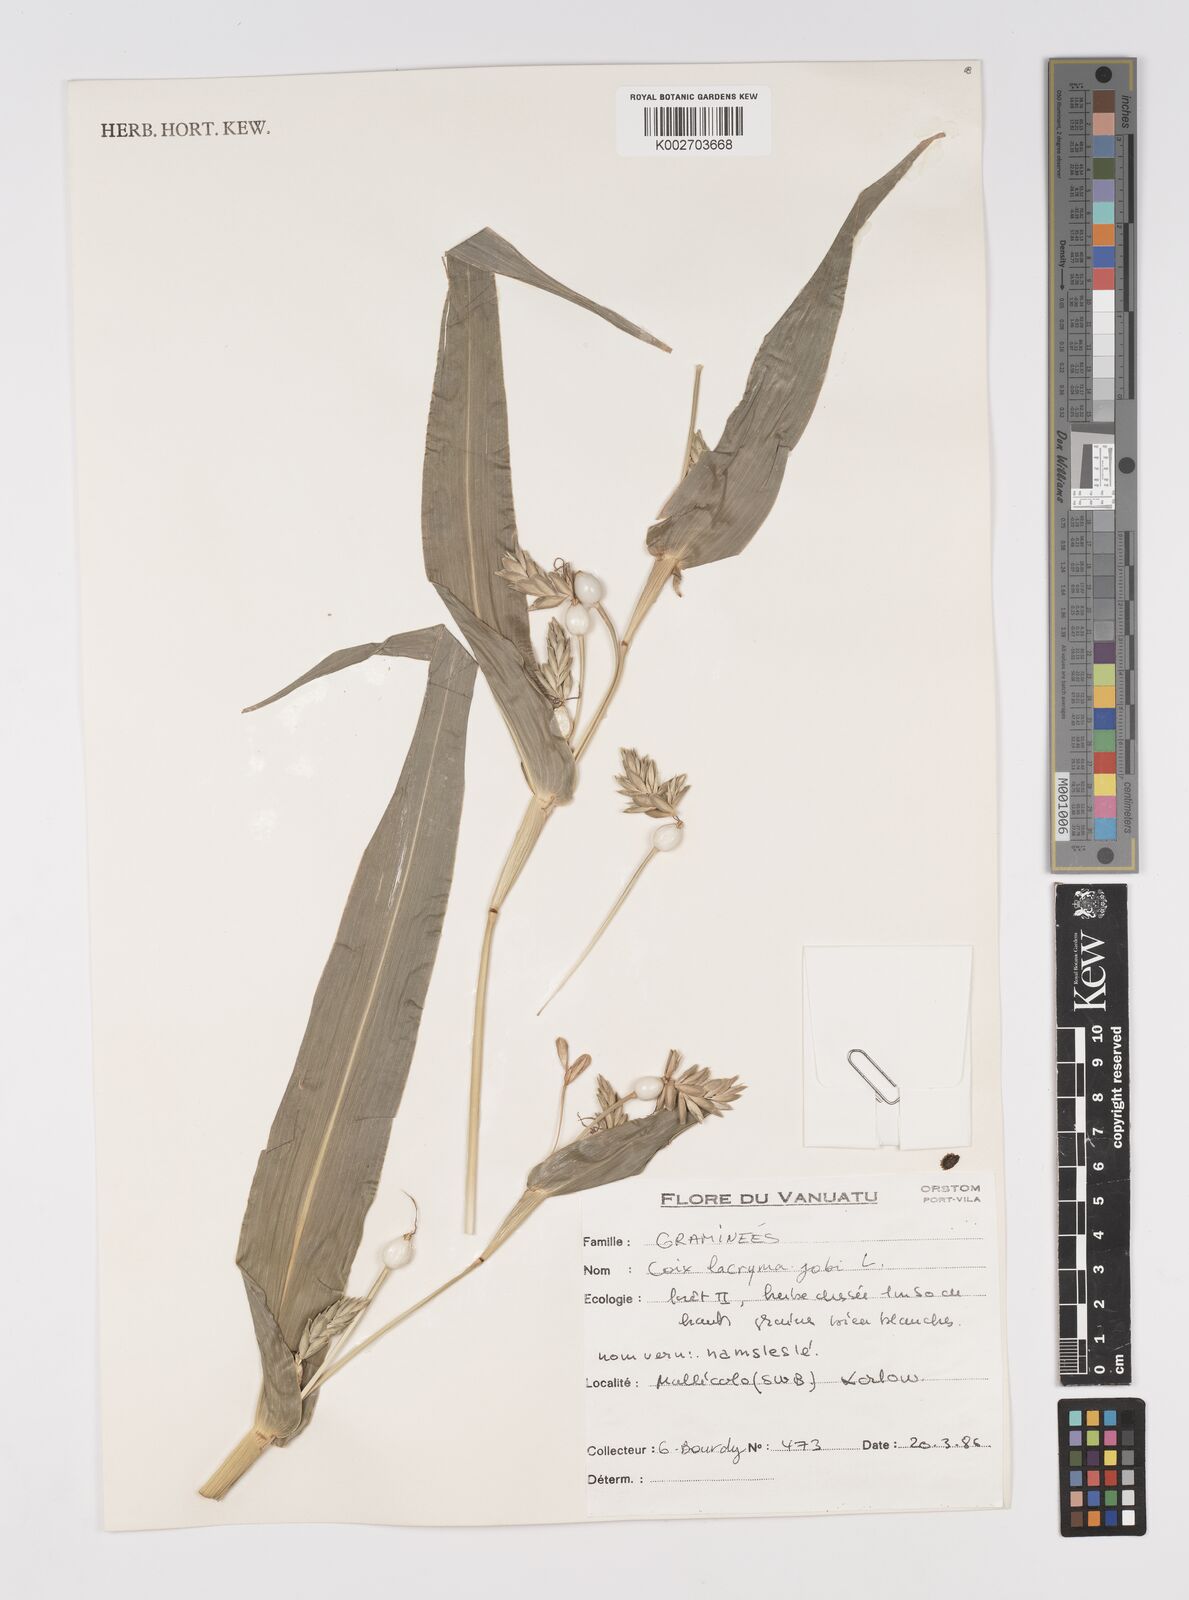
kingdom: Plantae
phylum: Tracheophyta
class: Liliopsida
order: Poales
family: Poaceae
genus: Coix
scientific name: Coix lacryma-jobi
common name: Job's tears
